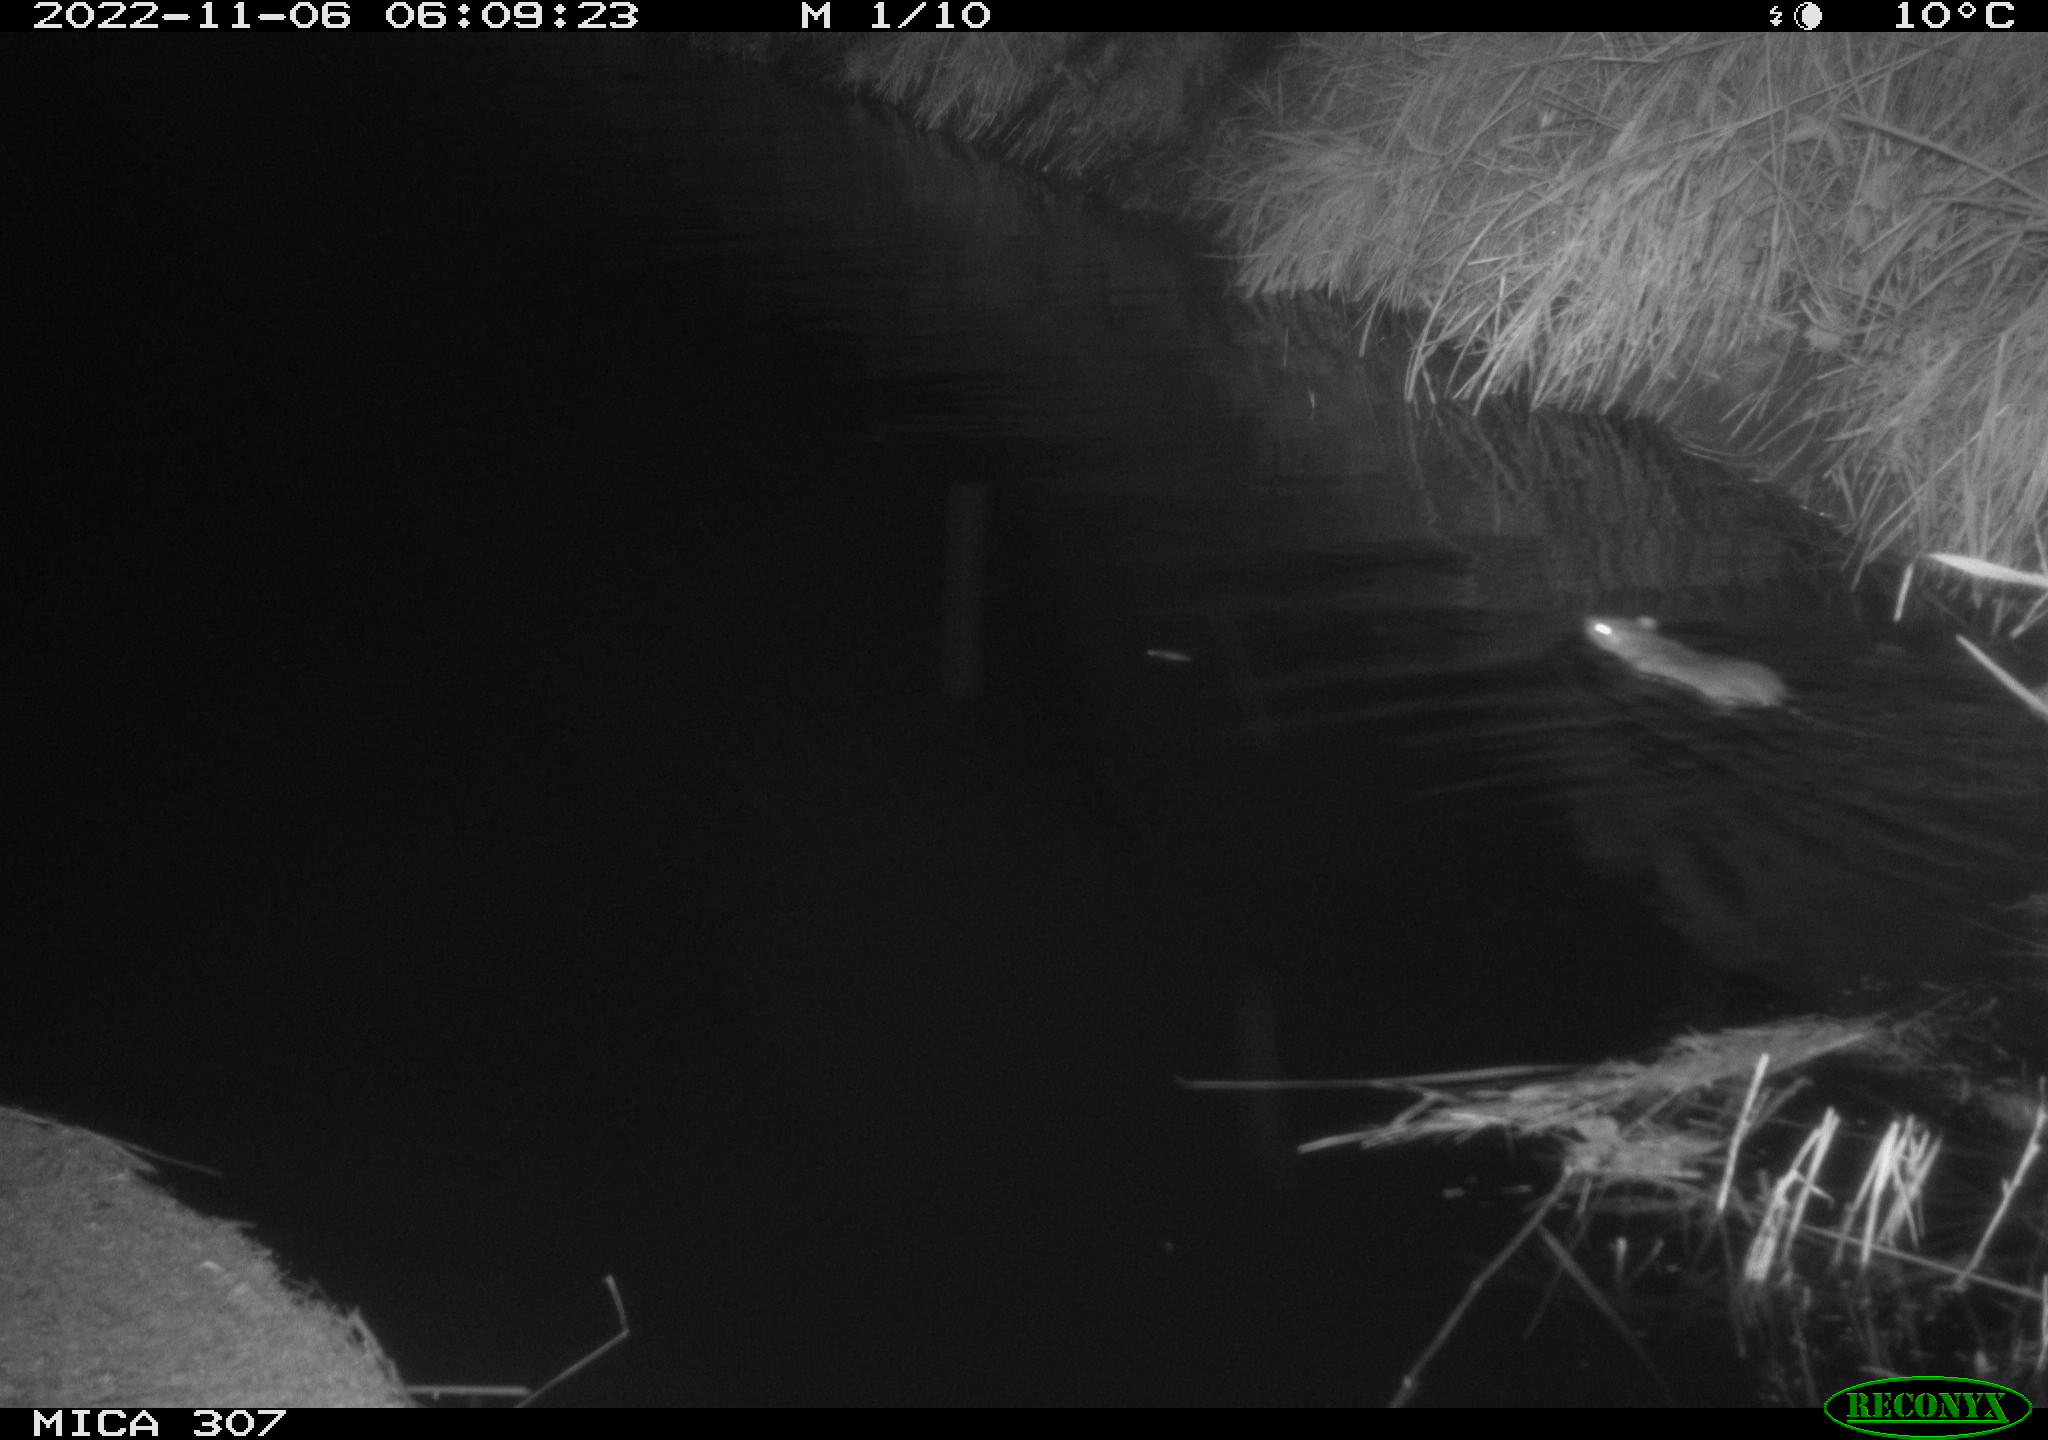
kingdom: Animalia
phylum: Chordata
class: Mammalia
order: Rodentia
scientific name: Rodentia
